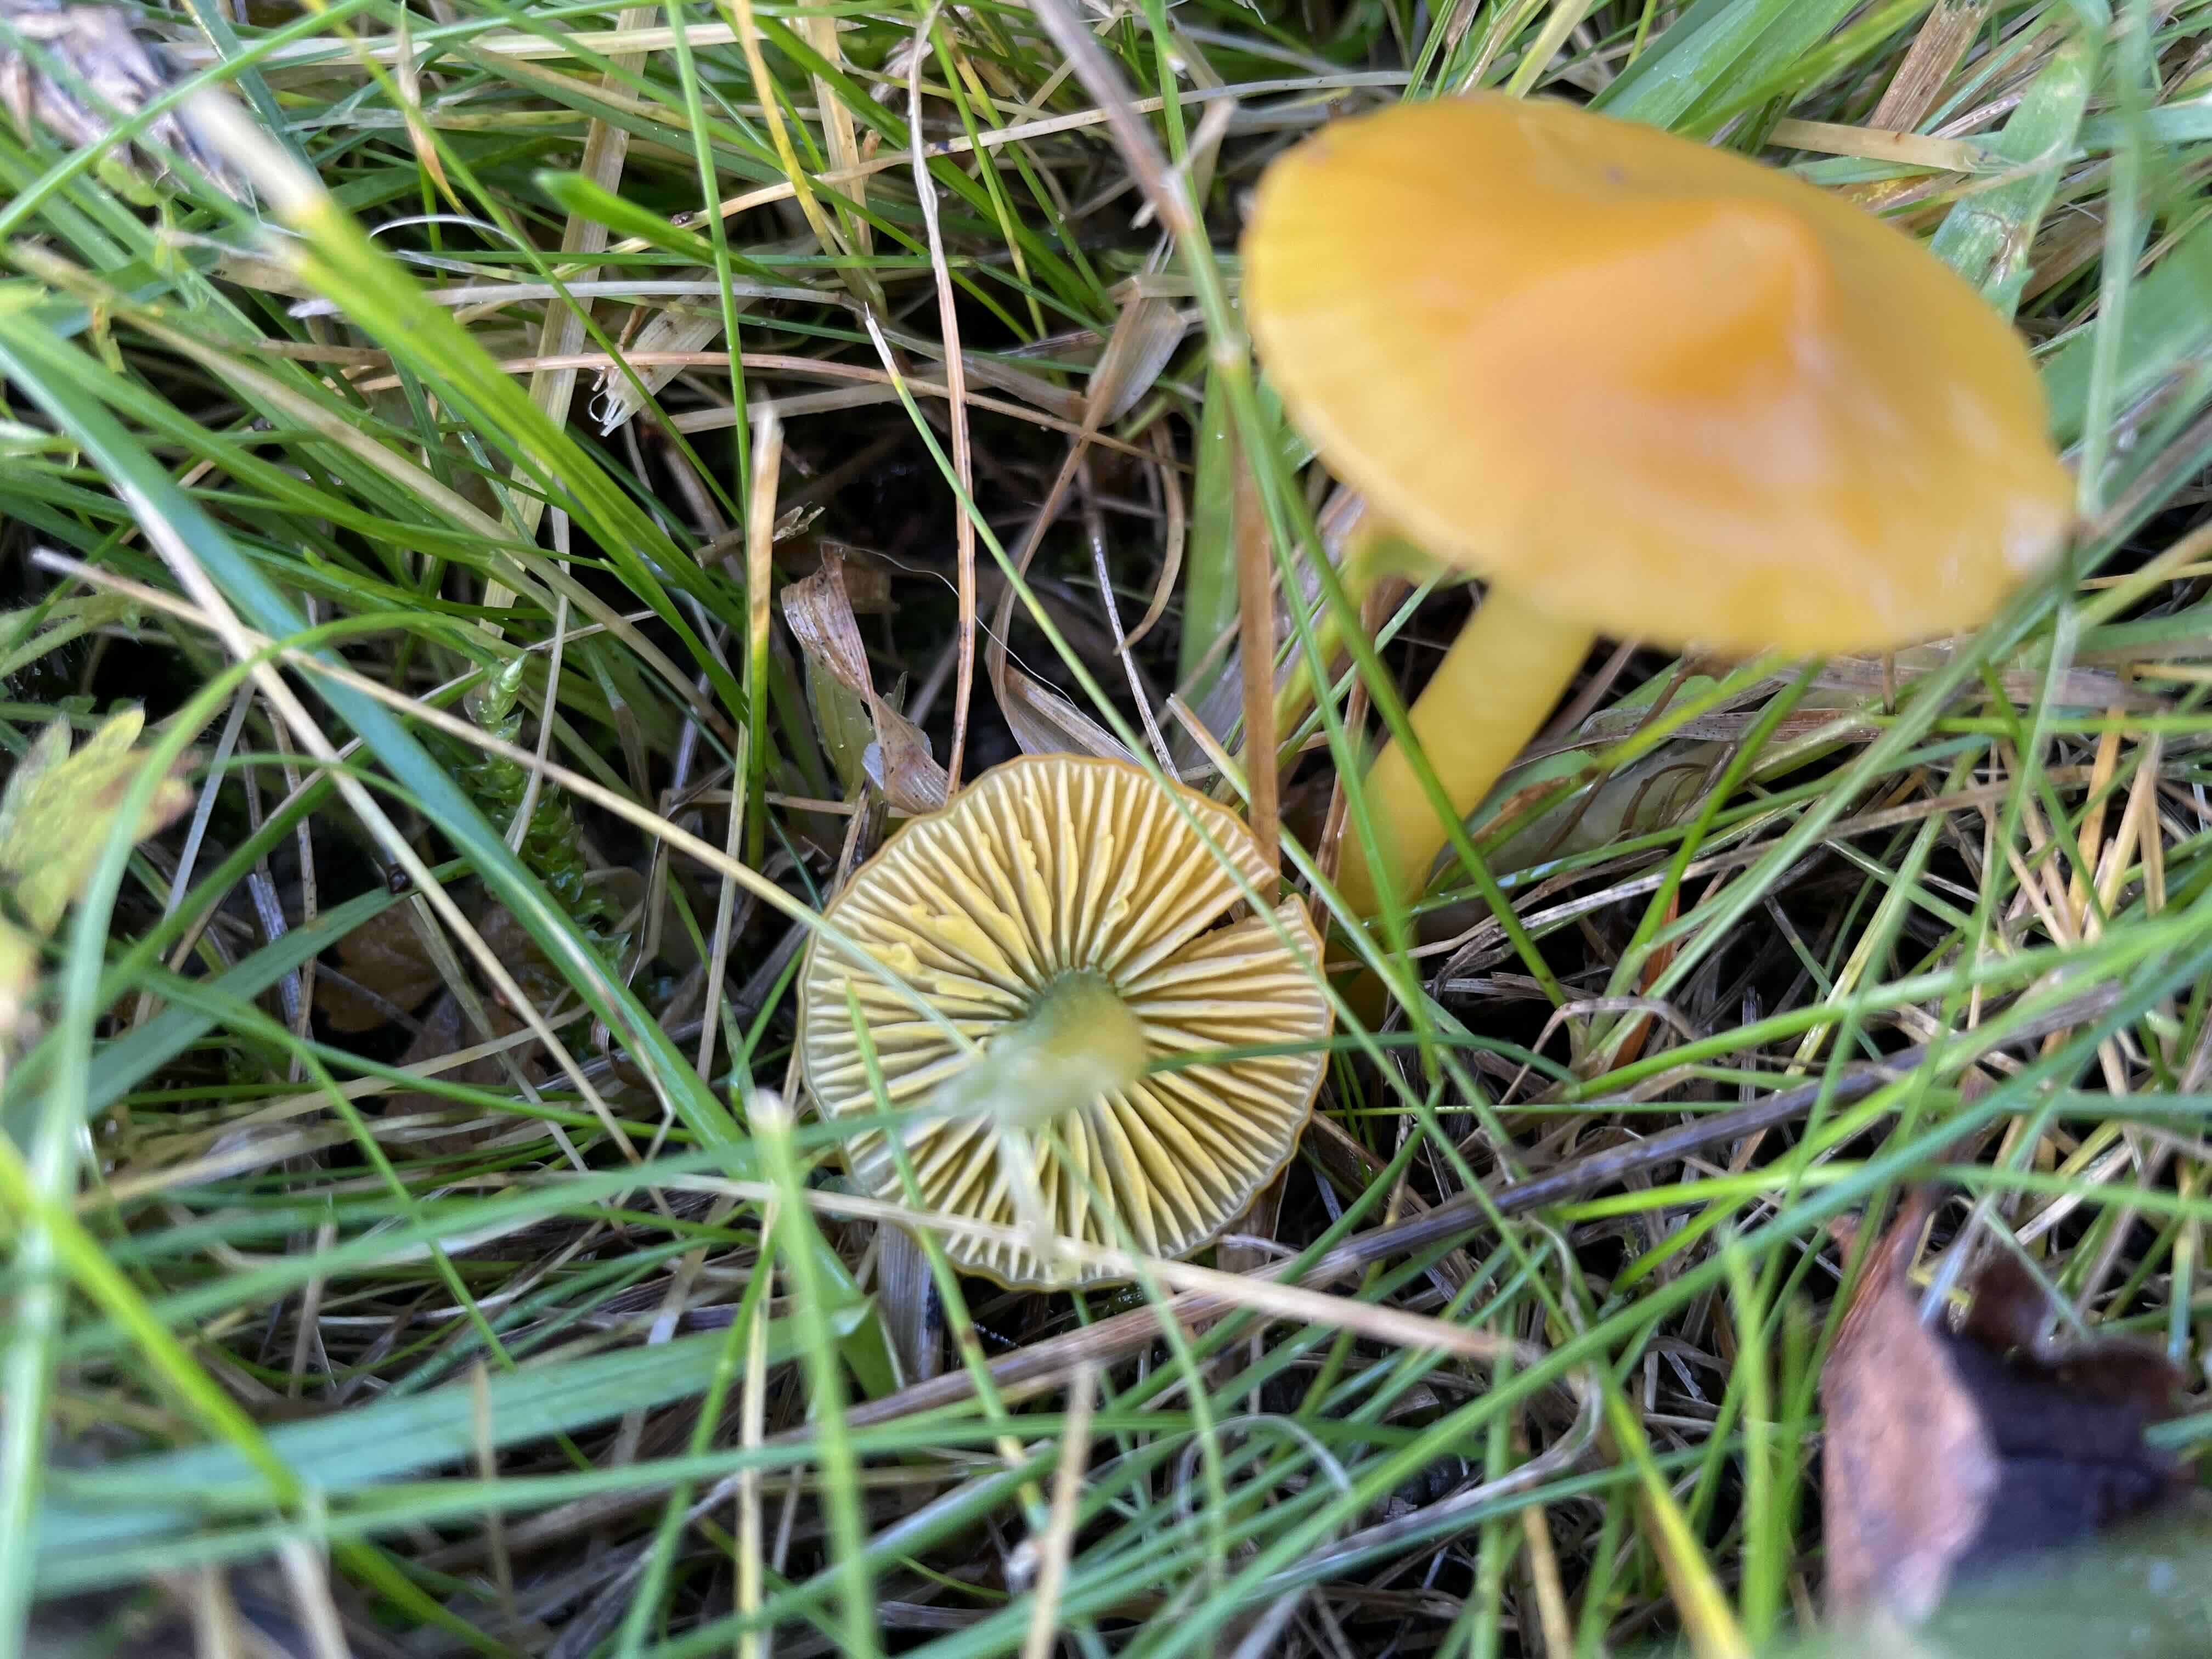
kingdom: Fungi
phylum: Basidiomycota
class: Agaricomycetes
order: Agaricales
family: Hygrophoraceae
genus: Gliophorus
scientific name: Gliophorus psittacinus
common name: papegøje-vokshat
